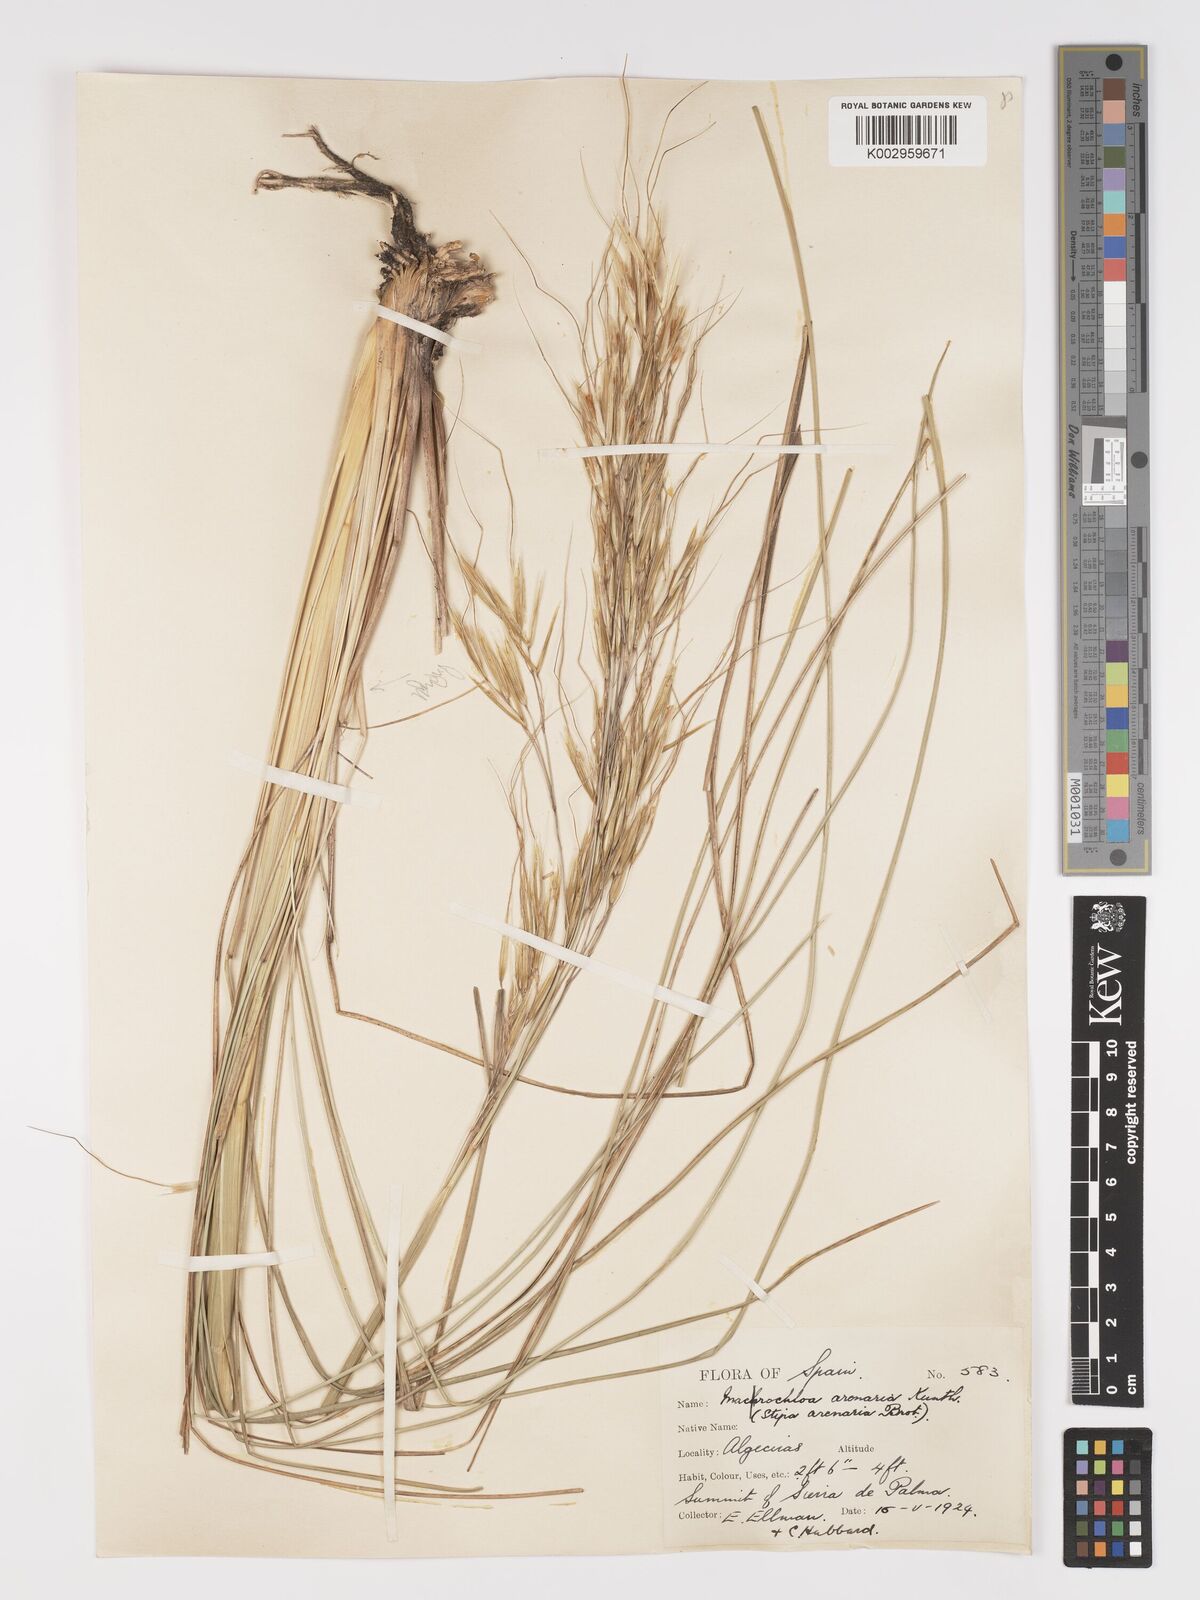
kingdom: Plantae
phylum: Tracheophyta
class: Liliopsida
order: Poales
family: Poaceae
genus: Celtica
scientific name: Celtica gigantea
